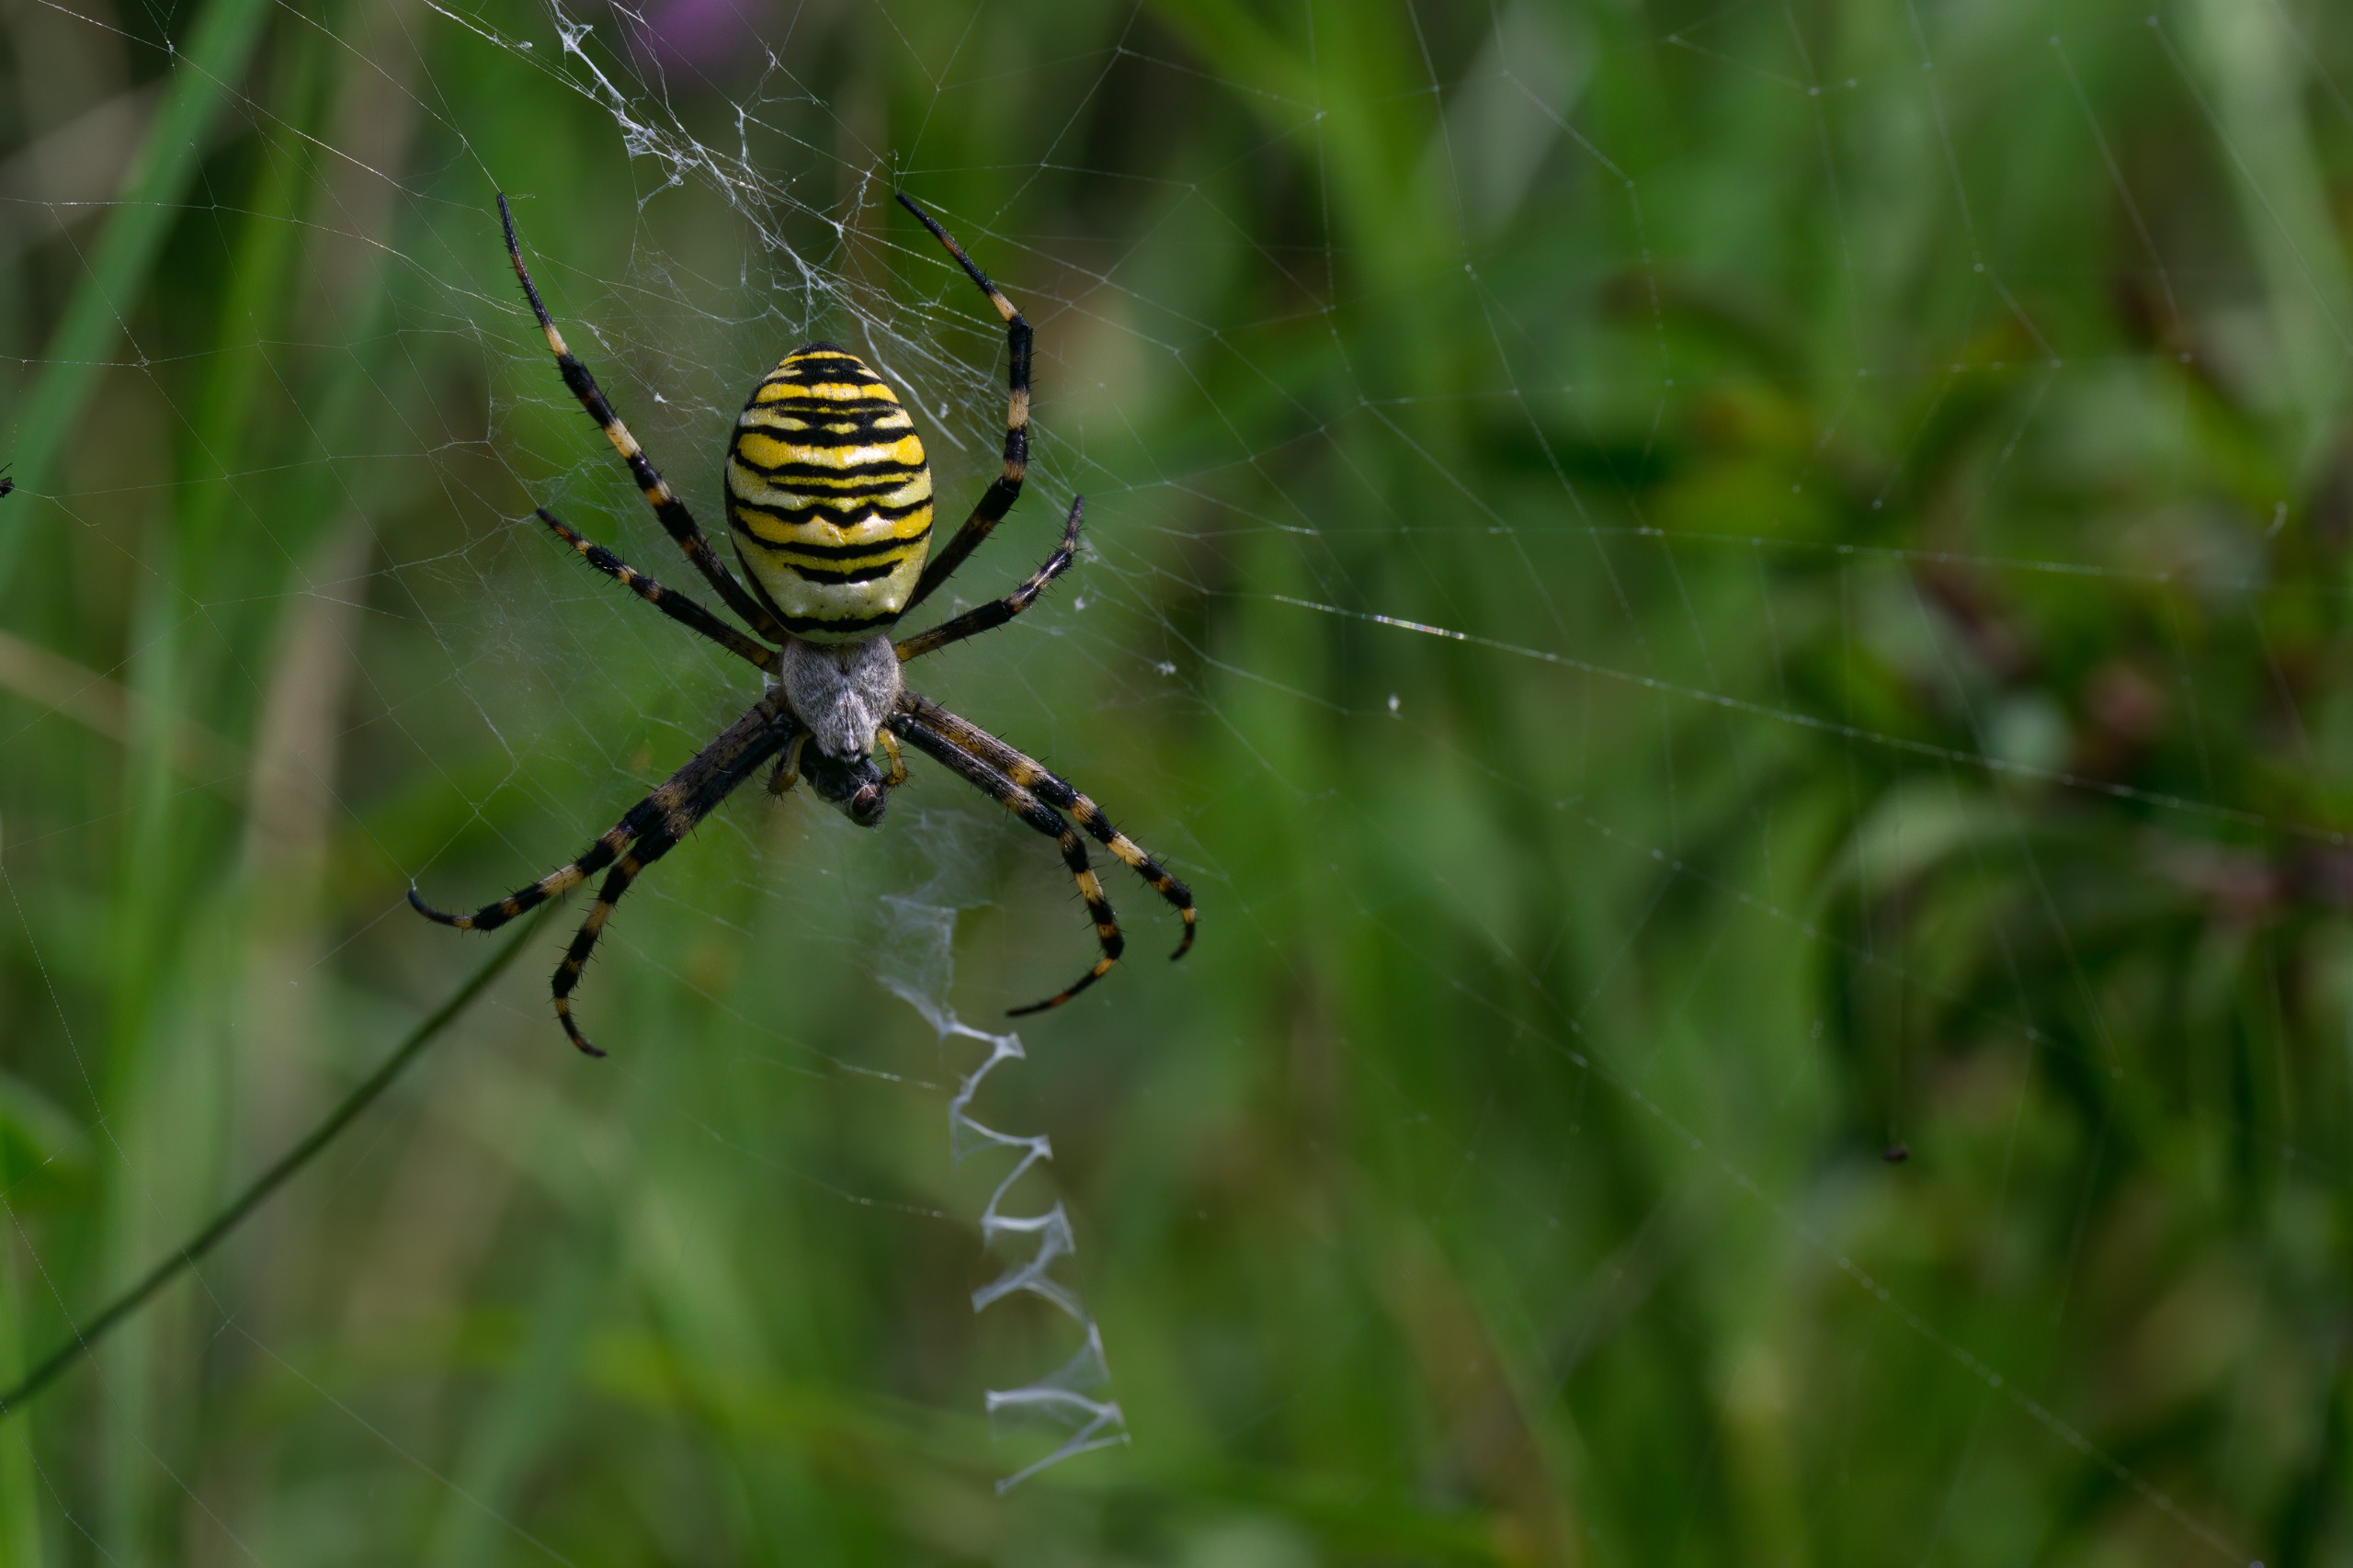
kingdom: Animalia
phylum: Arthropoda
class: Arachnida
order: Araneae
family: Araneidae
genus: Argiope
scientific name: Argiope bruennichi
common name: Hvepseedderkop
